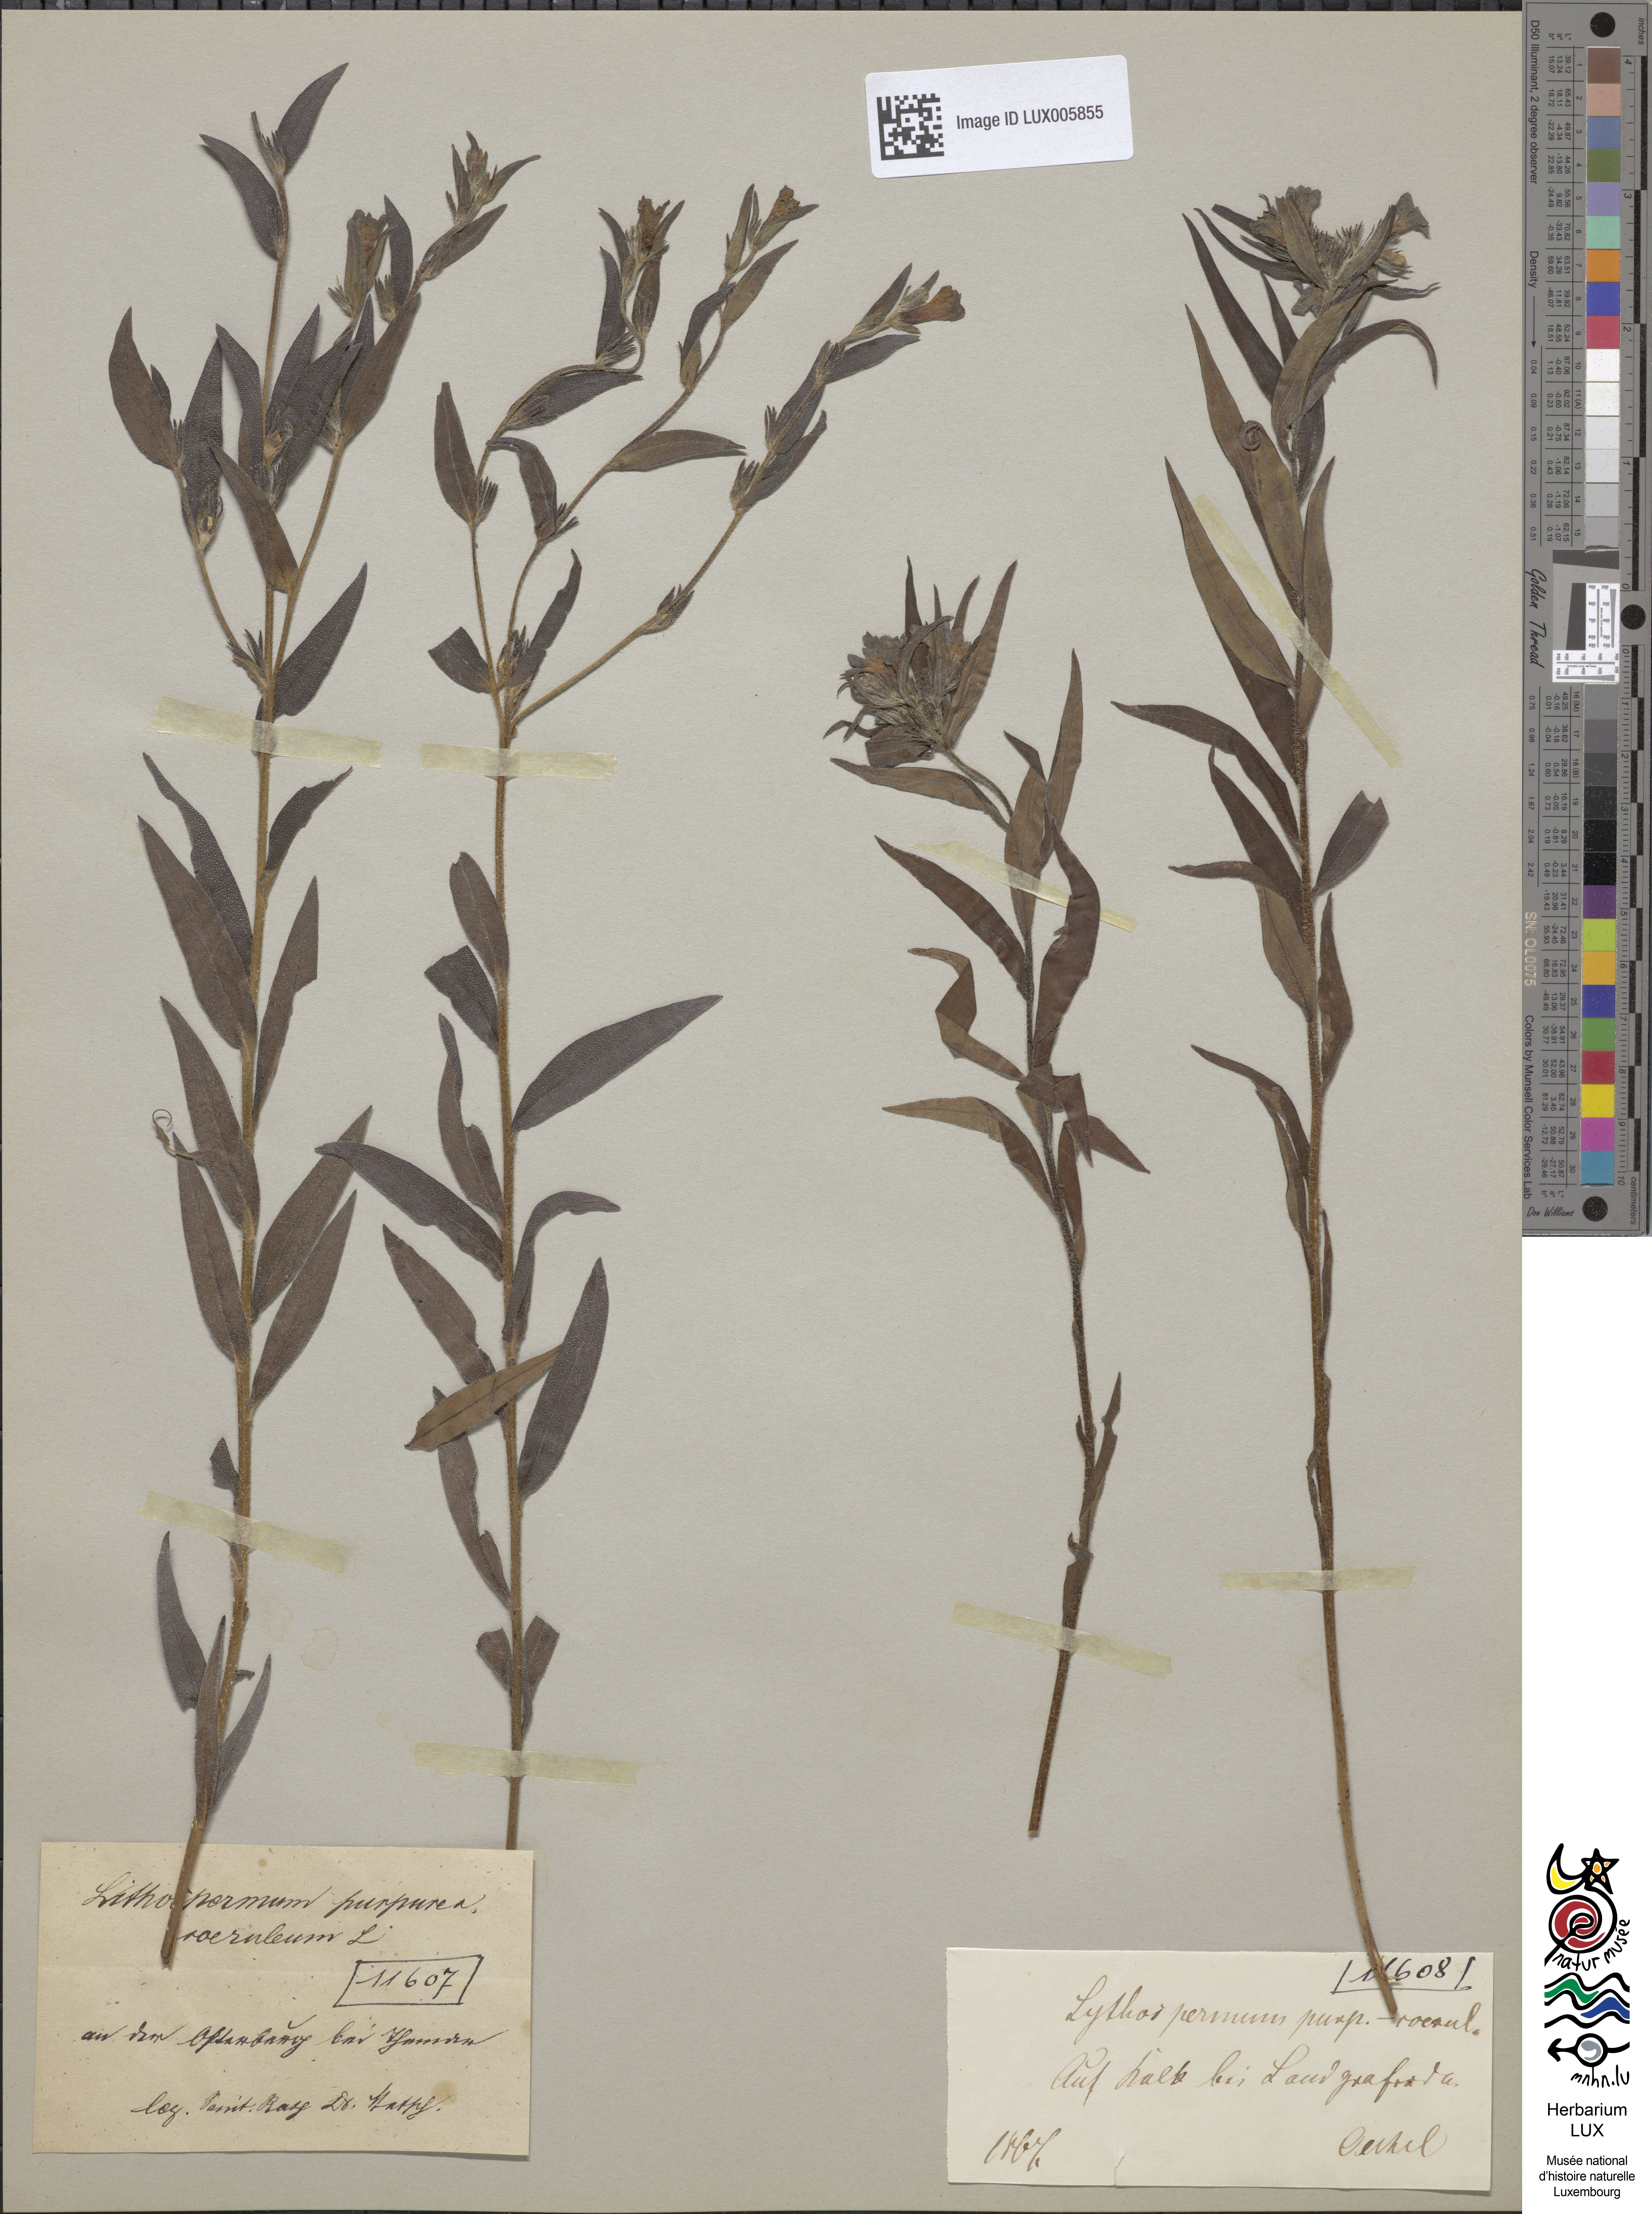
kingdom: Plantae
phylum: Tracheophyta
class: Magnoliopsida
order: Boraginales
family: Boraginaceae
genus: Aegonychon
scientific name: Aegonychon purpurocaeruleum
